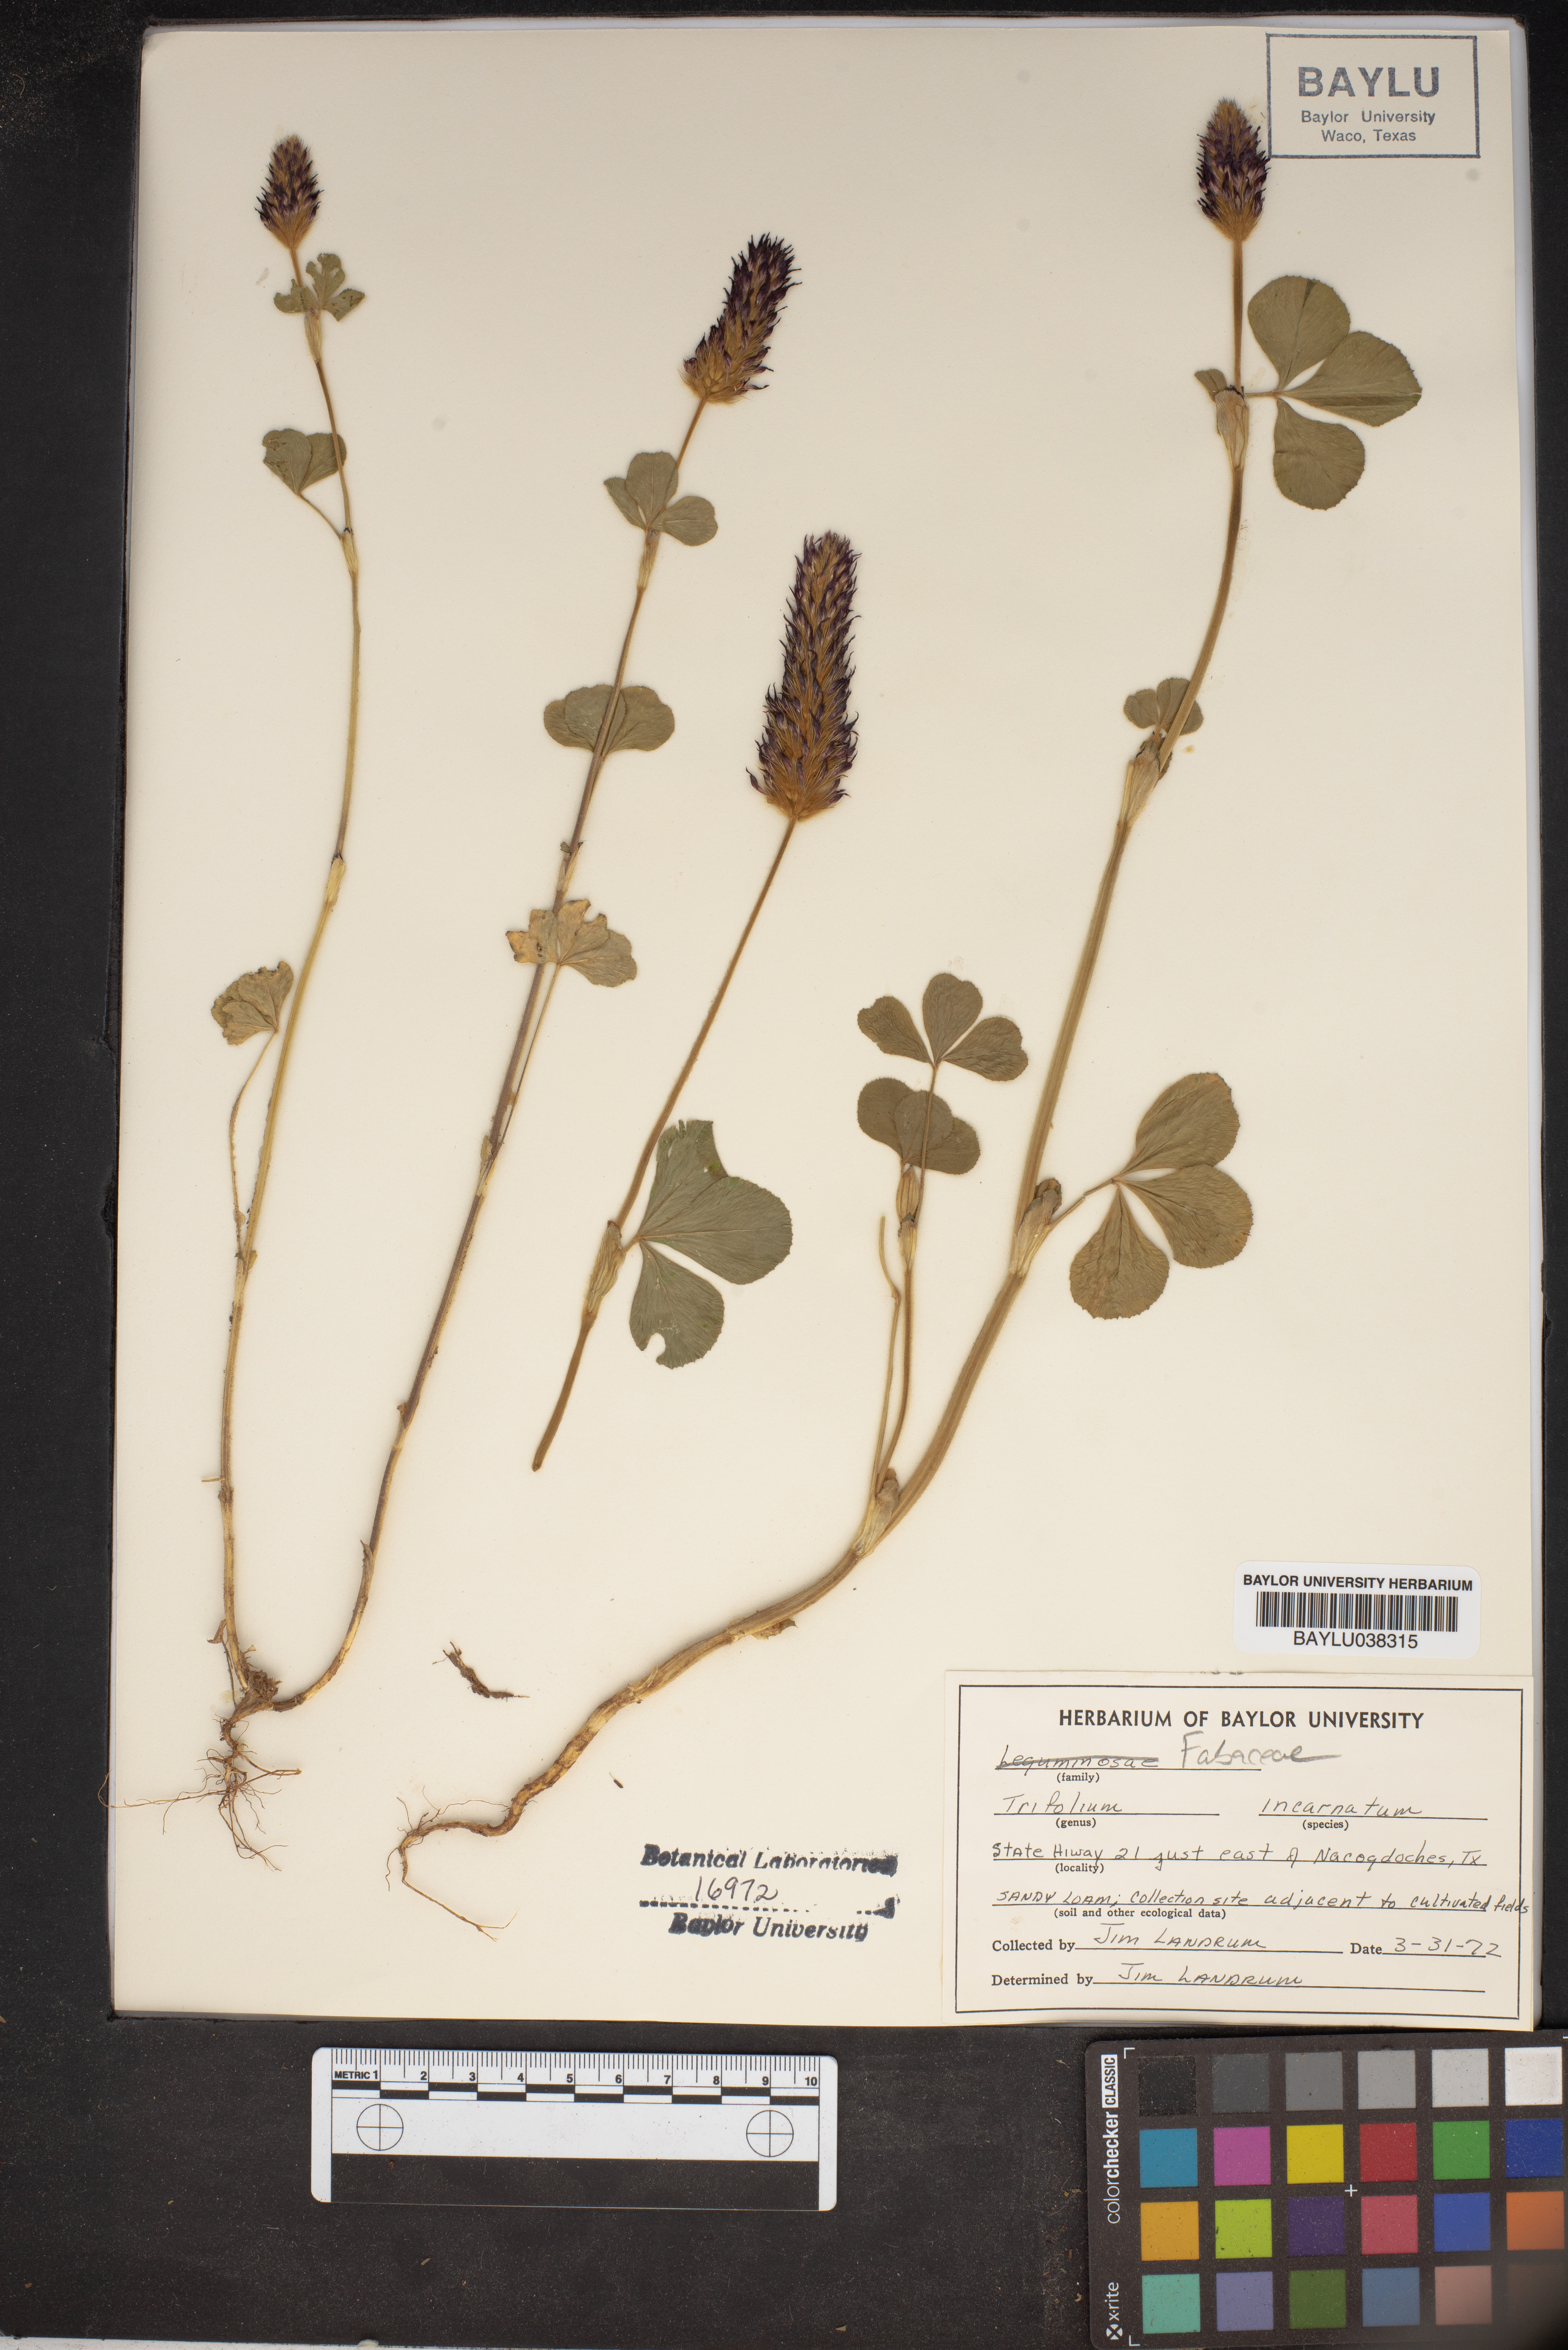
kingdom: Plantae
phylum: Tracheophyta
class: Magnoliopsida
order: Fabales
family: Fabaceae
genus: Trifolium
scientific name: Trifolium incarnatum
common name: Crimson clover
